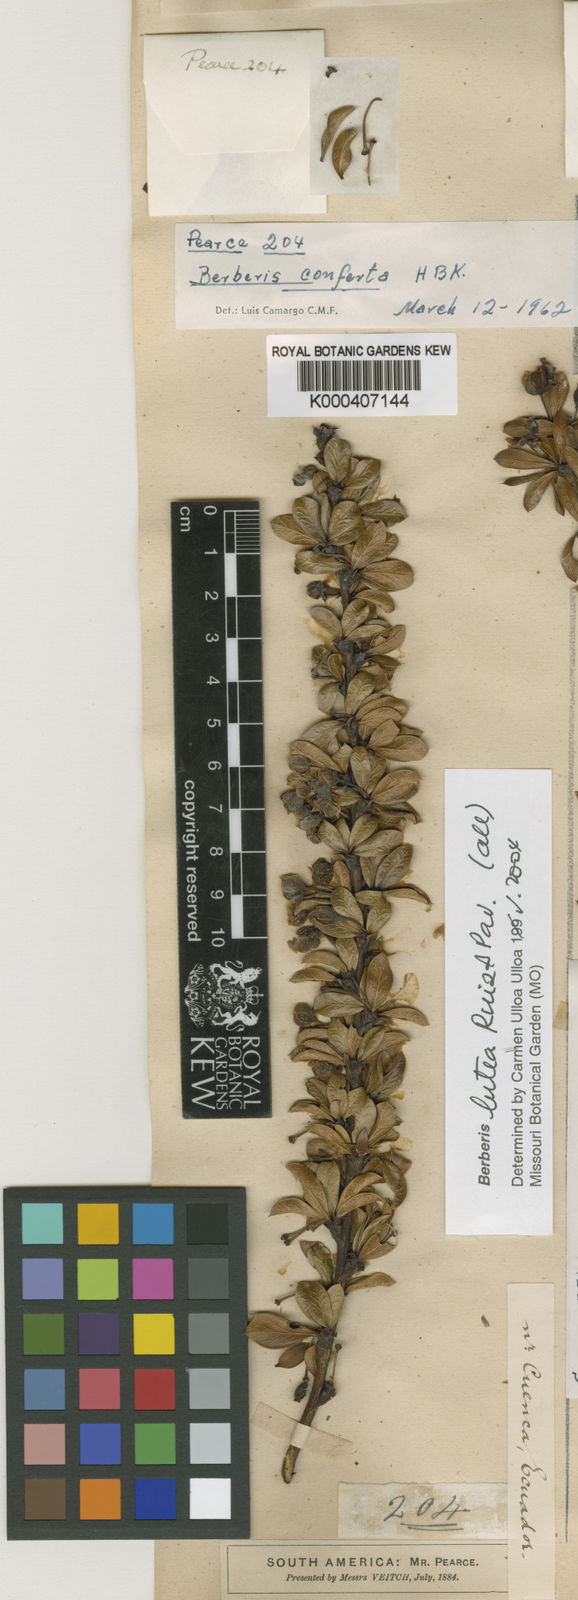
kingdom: Plantae
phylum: Tracheophyta
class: Magnoliopsida
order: Ranunculales
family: Berberidaceae
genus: Berberis
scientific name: Berberis lutea
